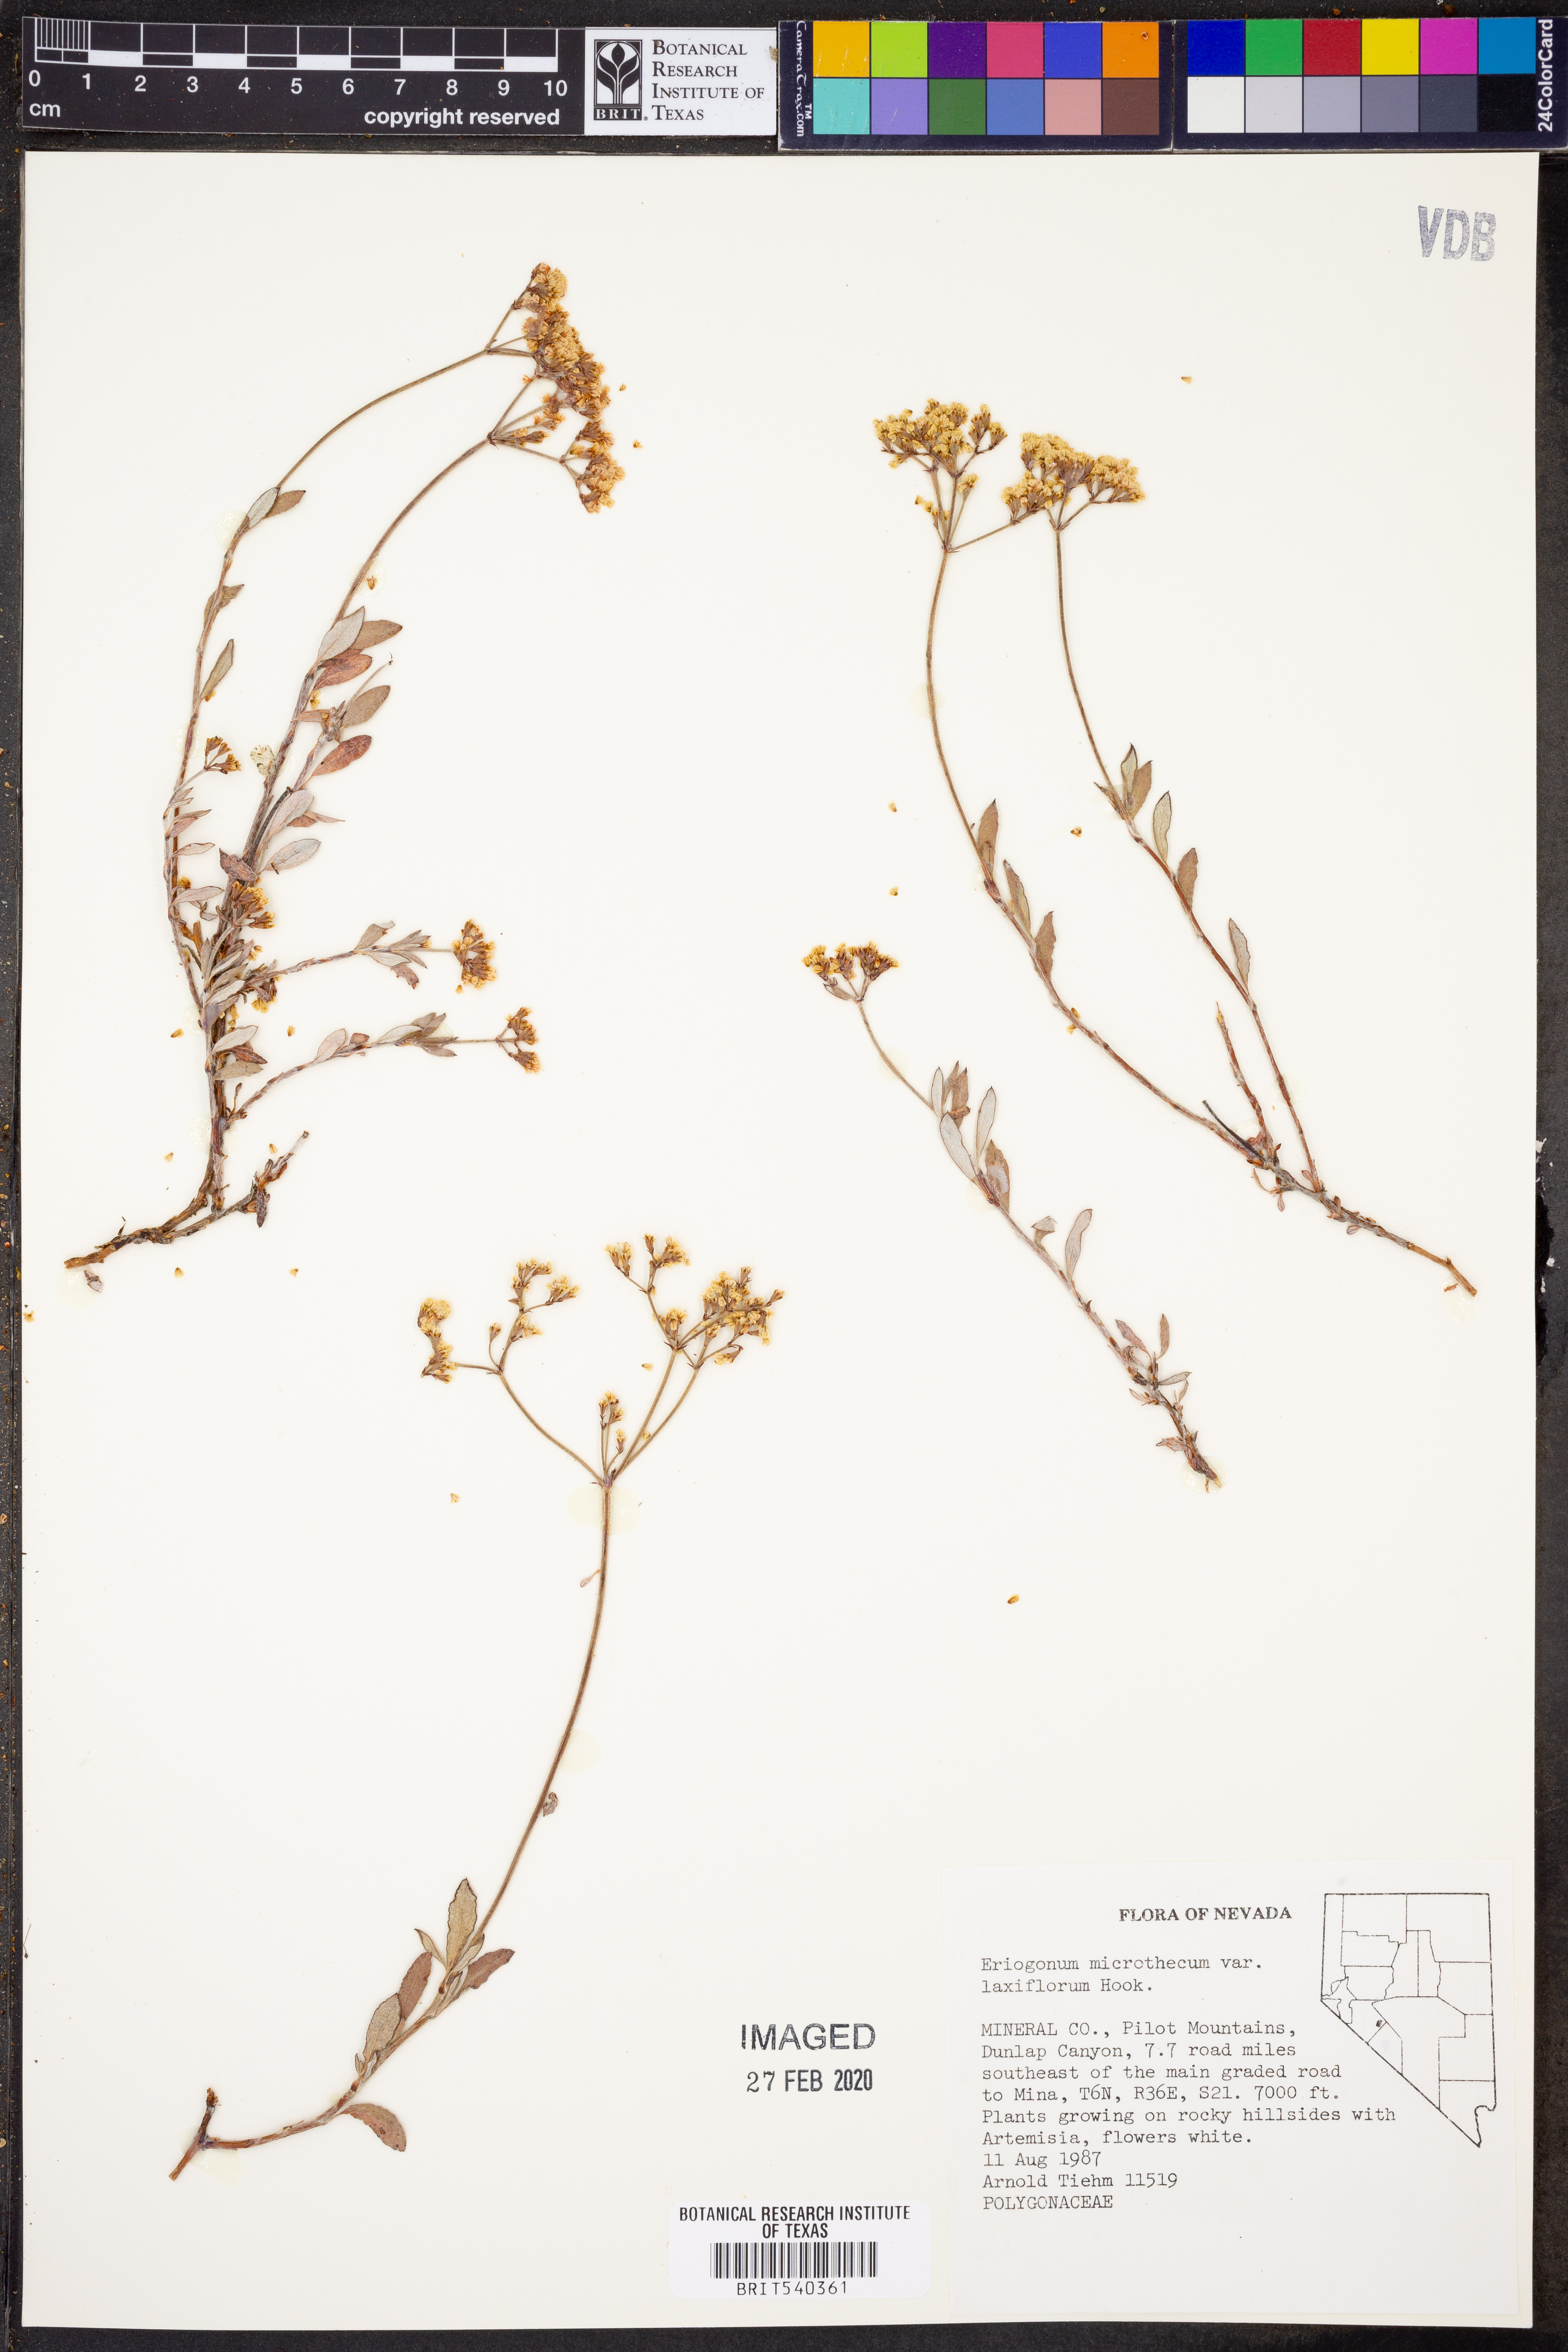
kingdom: Plantae
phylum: Tracheophyta
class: Magnoliopsida
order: Caryophyllales
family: Polygonaceae
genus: Eriogonum
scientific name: Eriogonum microtheca
